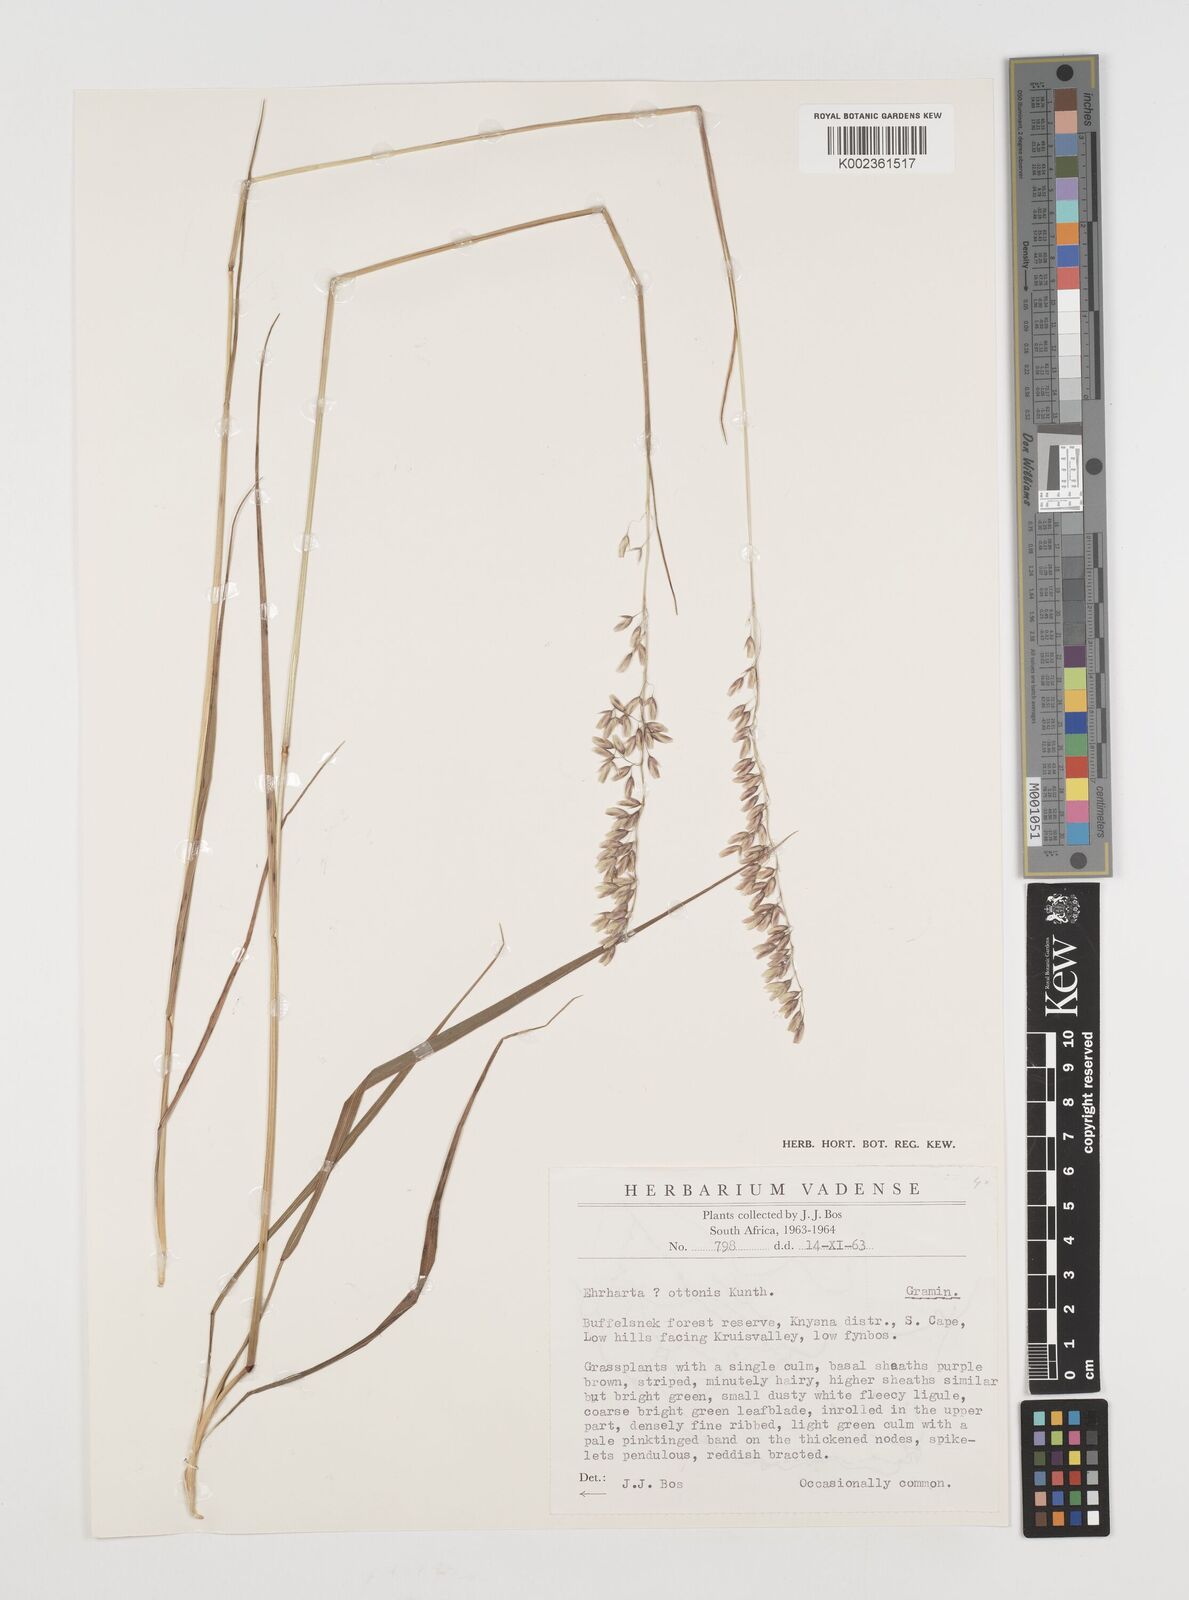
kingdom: Plantae
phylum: Tracheophyta
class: Liliopsida
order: Poales
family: Poaceae
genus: Ehrharta
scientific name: Ehrharta capensis
